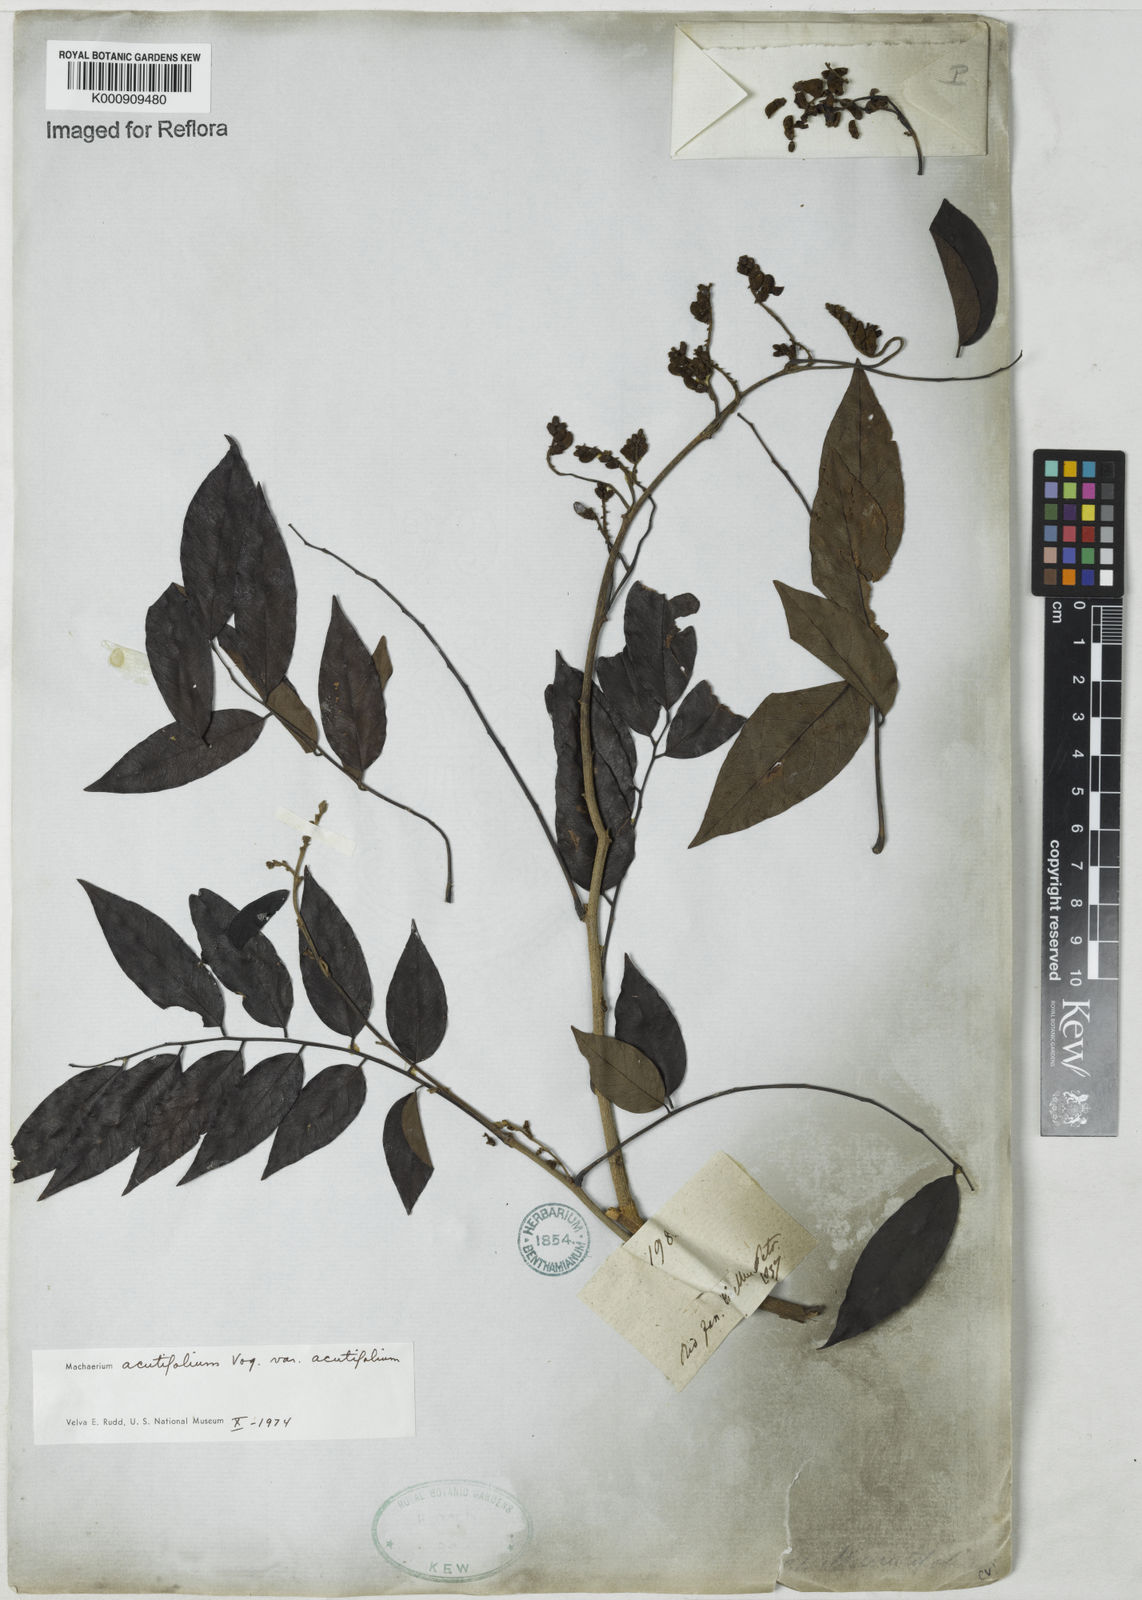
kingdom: Plantae
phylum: Tracheophyta
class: Magnoliopsida
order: Fabales
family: Fabaceae
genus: Machaerium
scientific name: Machaerium acutifolium
